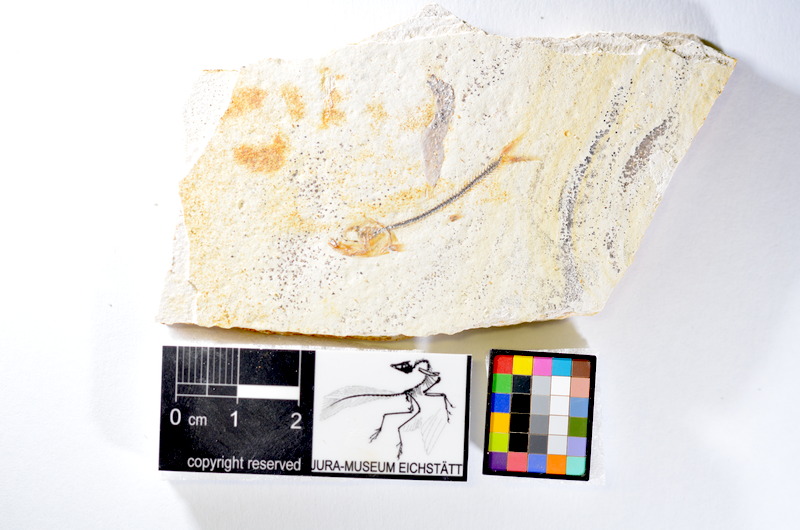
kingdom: Animalia
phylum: Chordata
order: Salmoniformes
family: Orthogonikleithridae
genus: Orthogonikleithrus
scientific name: Orthogonikleithrus hoelli
